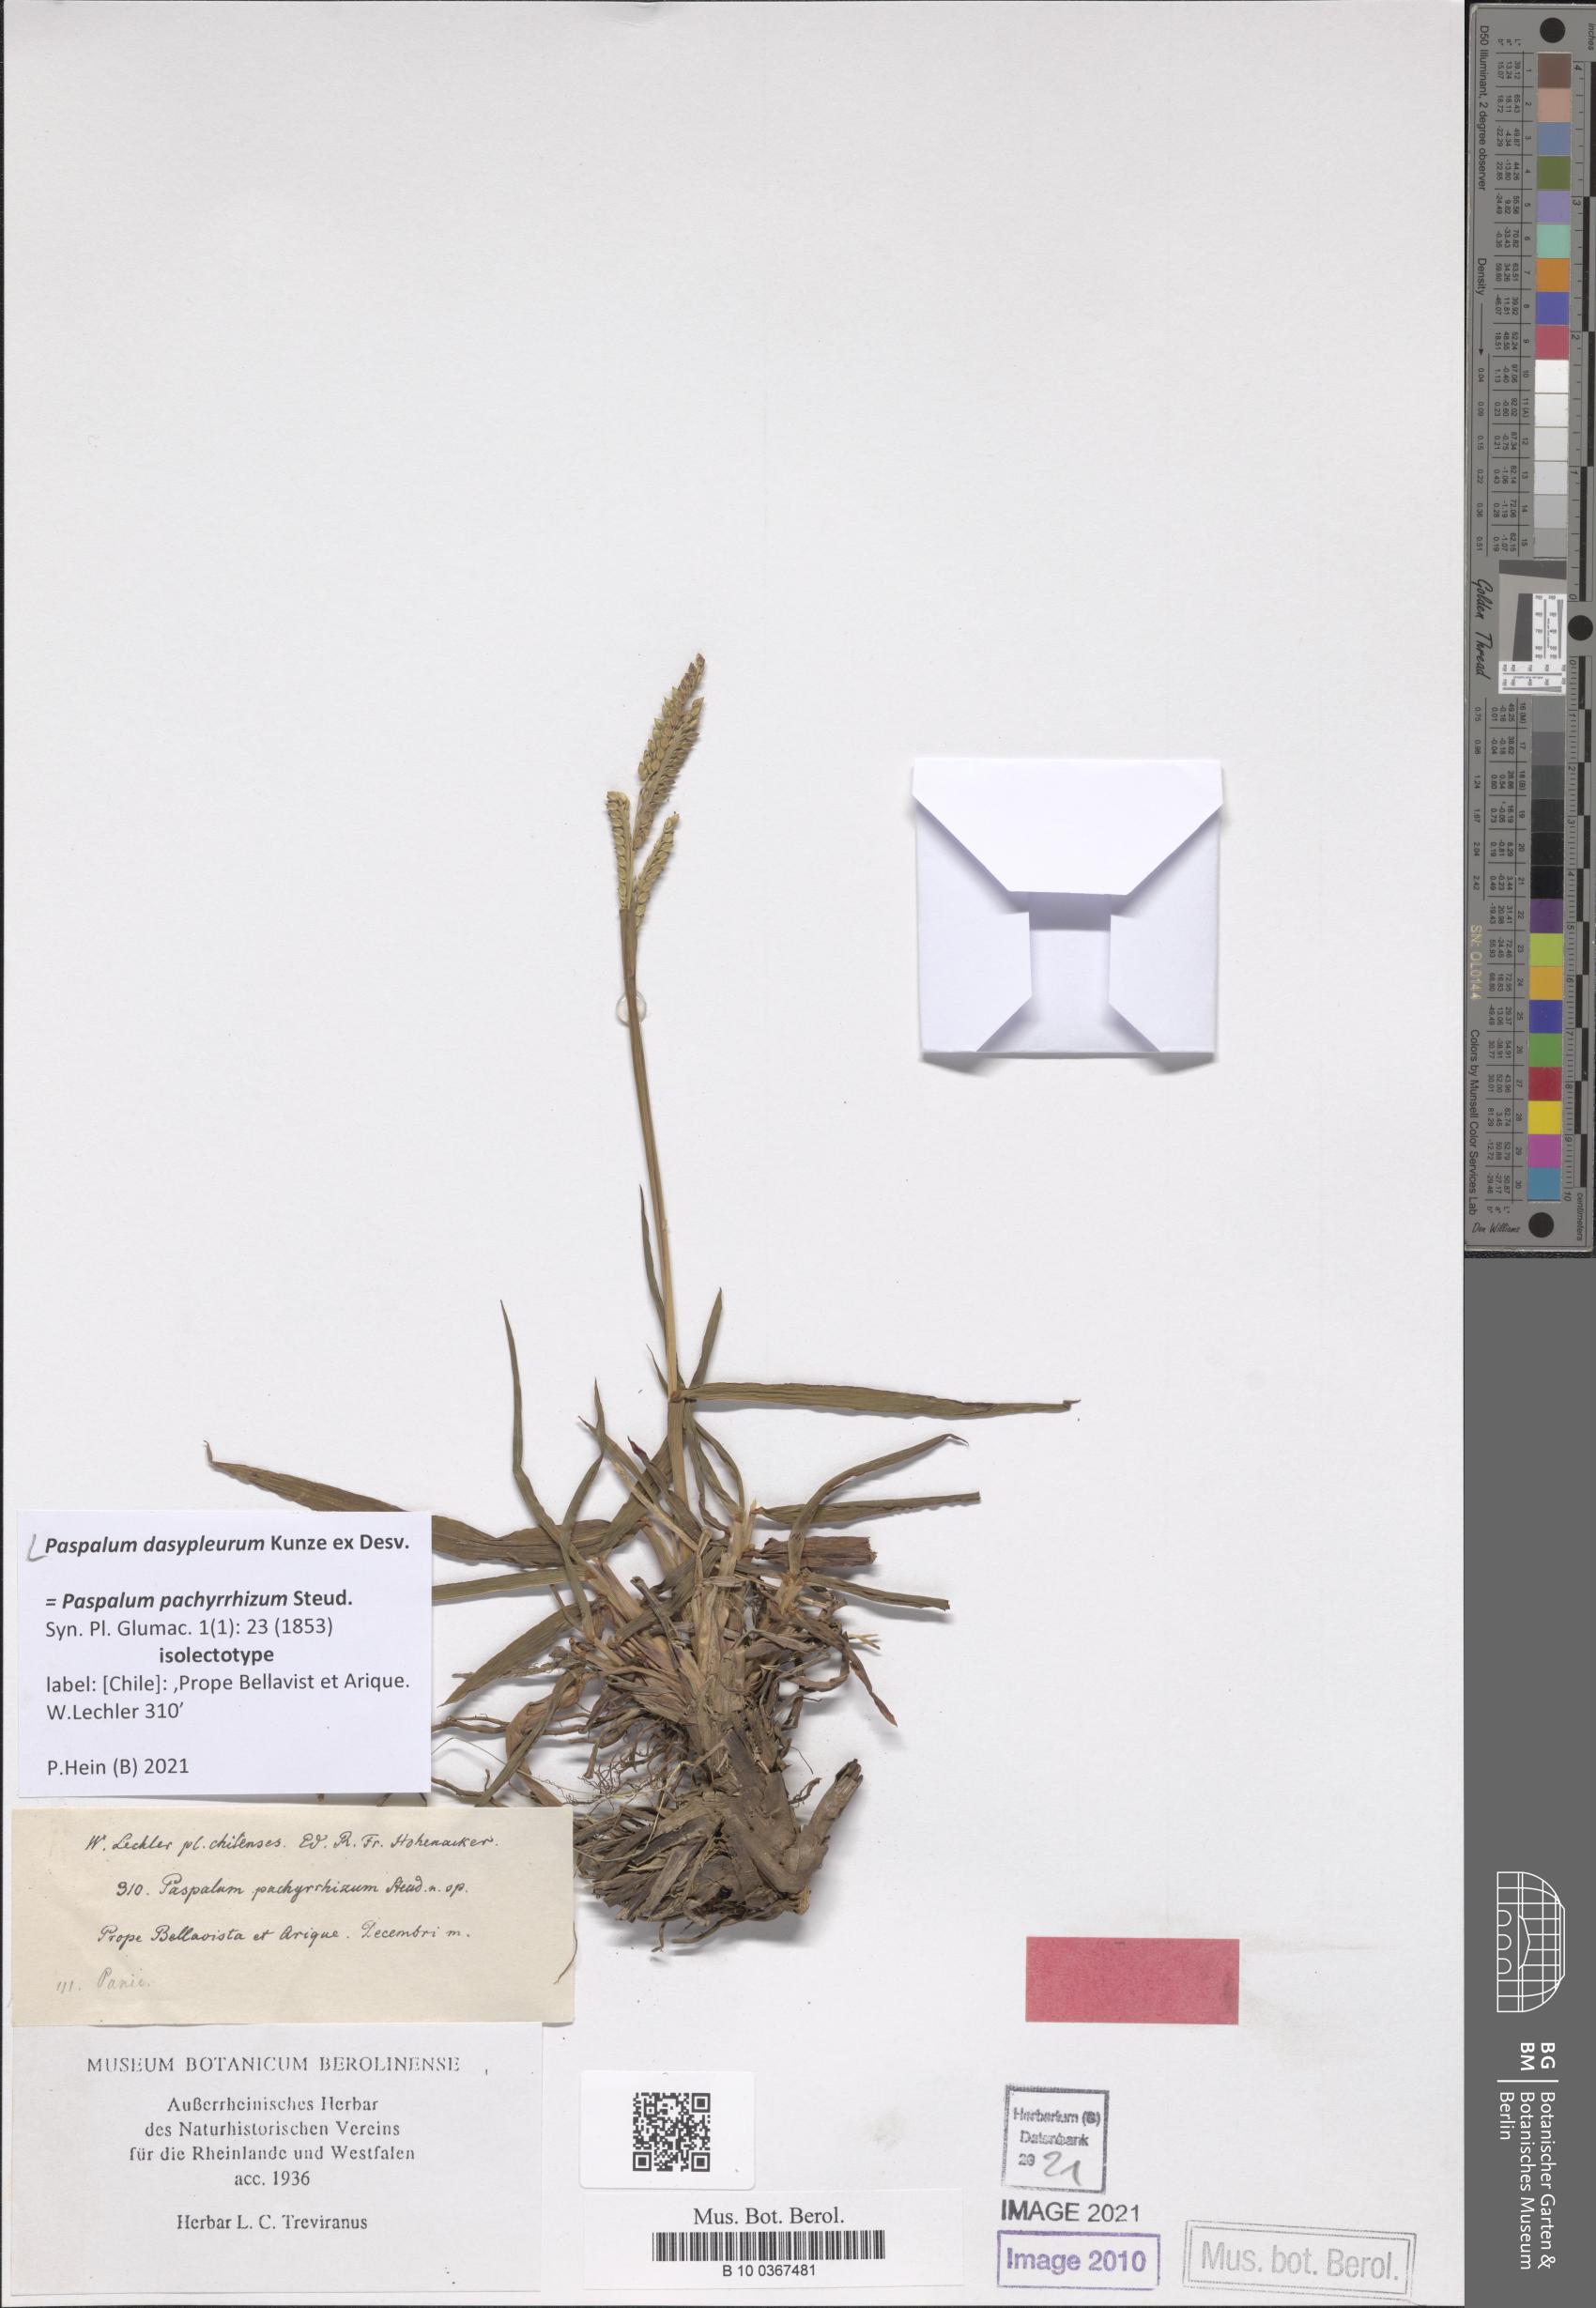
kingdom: Plantae
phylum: Tracheophyta
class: Liliopsida
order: Poales
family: Poaceae
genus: Paspalum
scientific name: Paspalum dasypleurum
